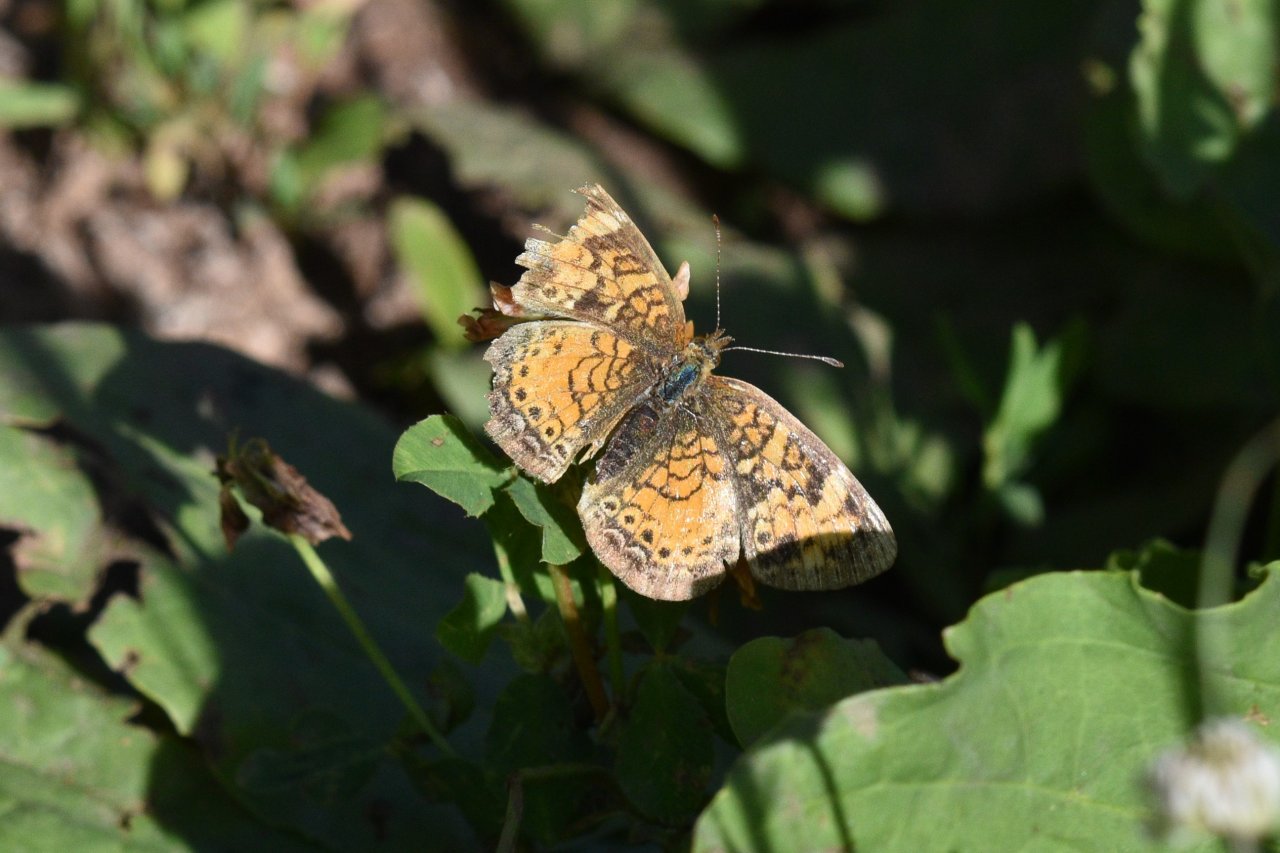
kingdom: Animalia
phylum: Arthropoda
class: Insecta
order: Lepidoptera
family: Nymphalidae
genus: Phyciodes
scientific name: Phyciodes tharos
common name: Northern Crescent
